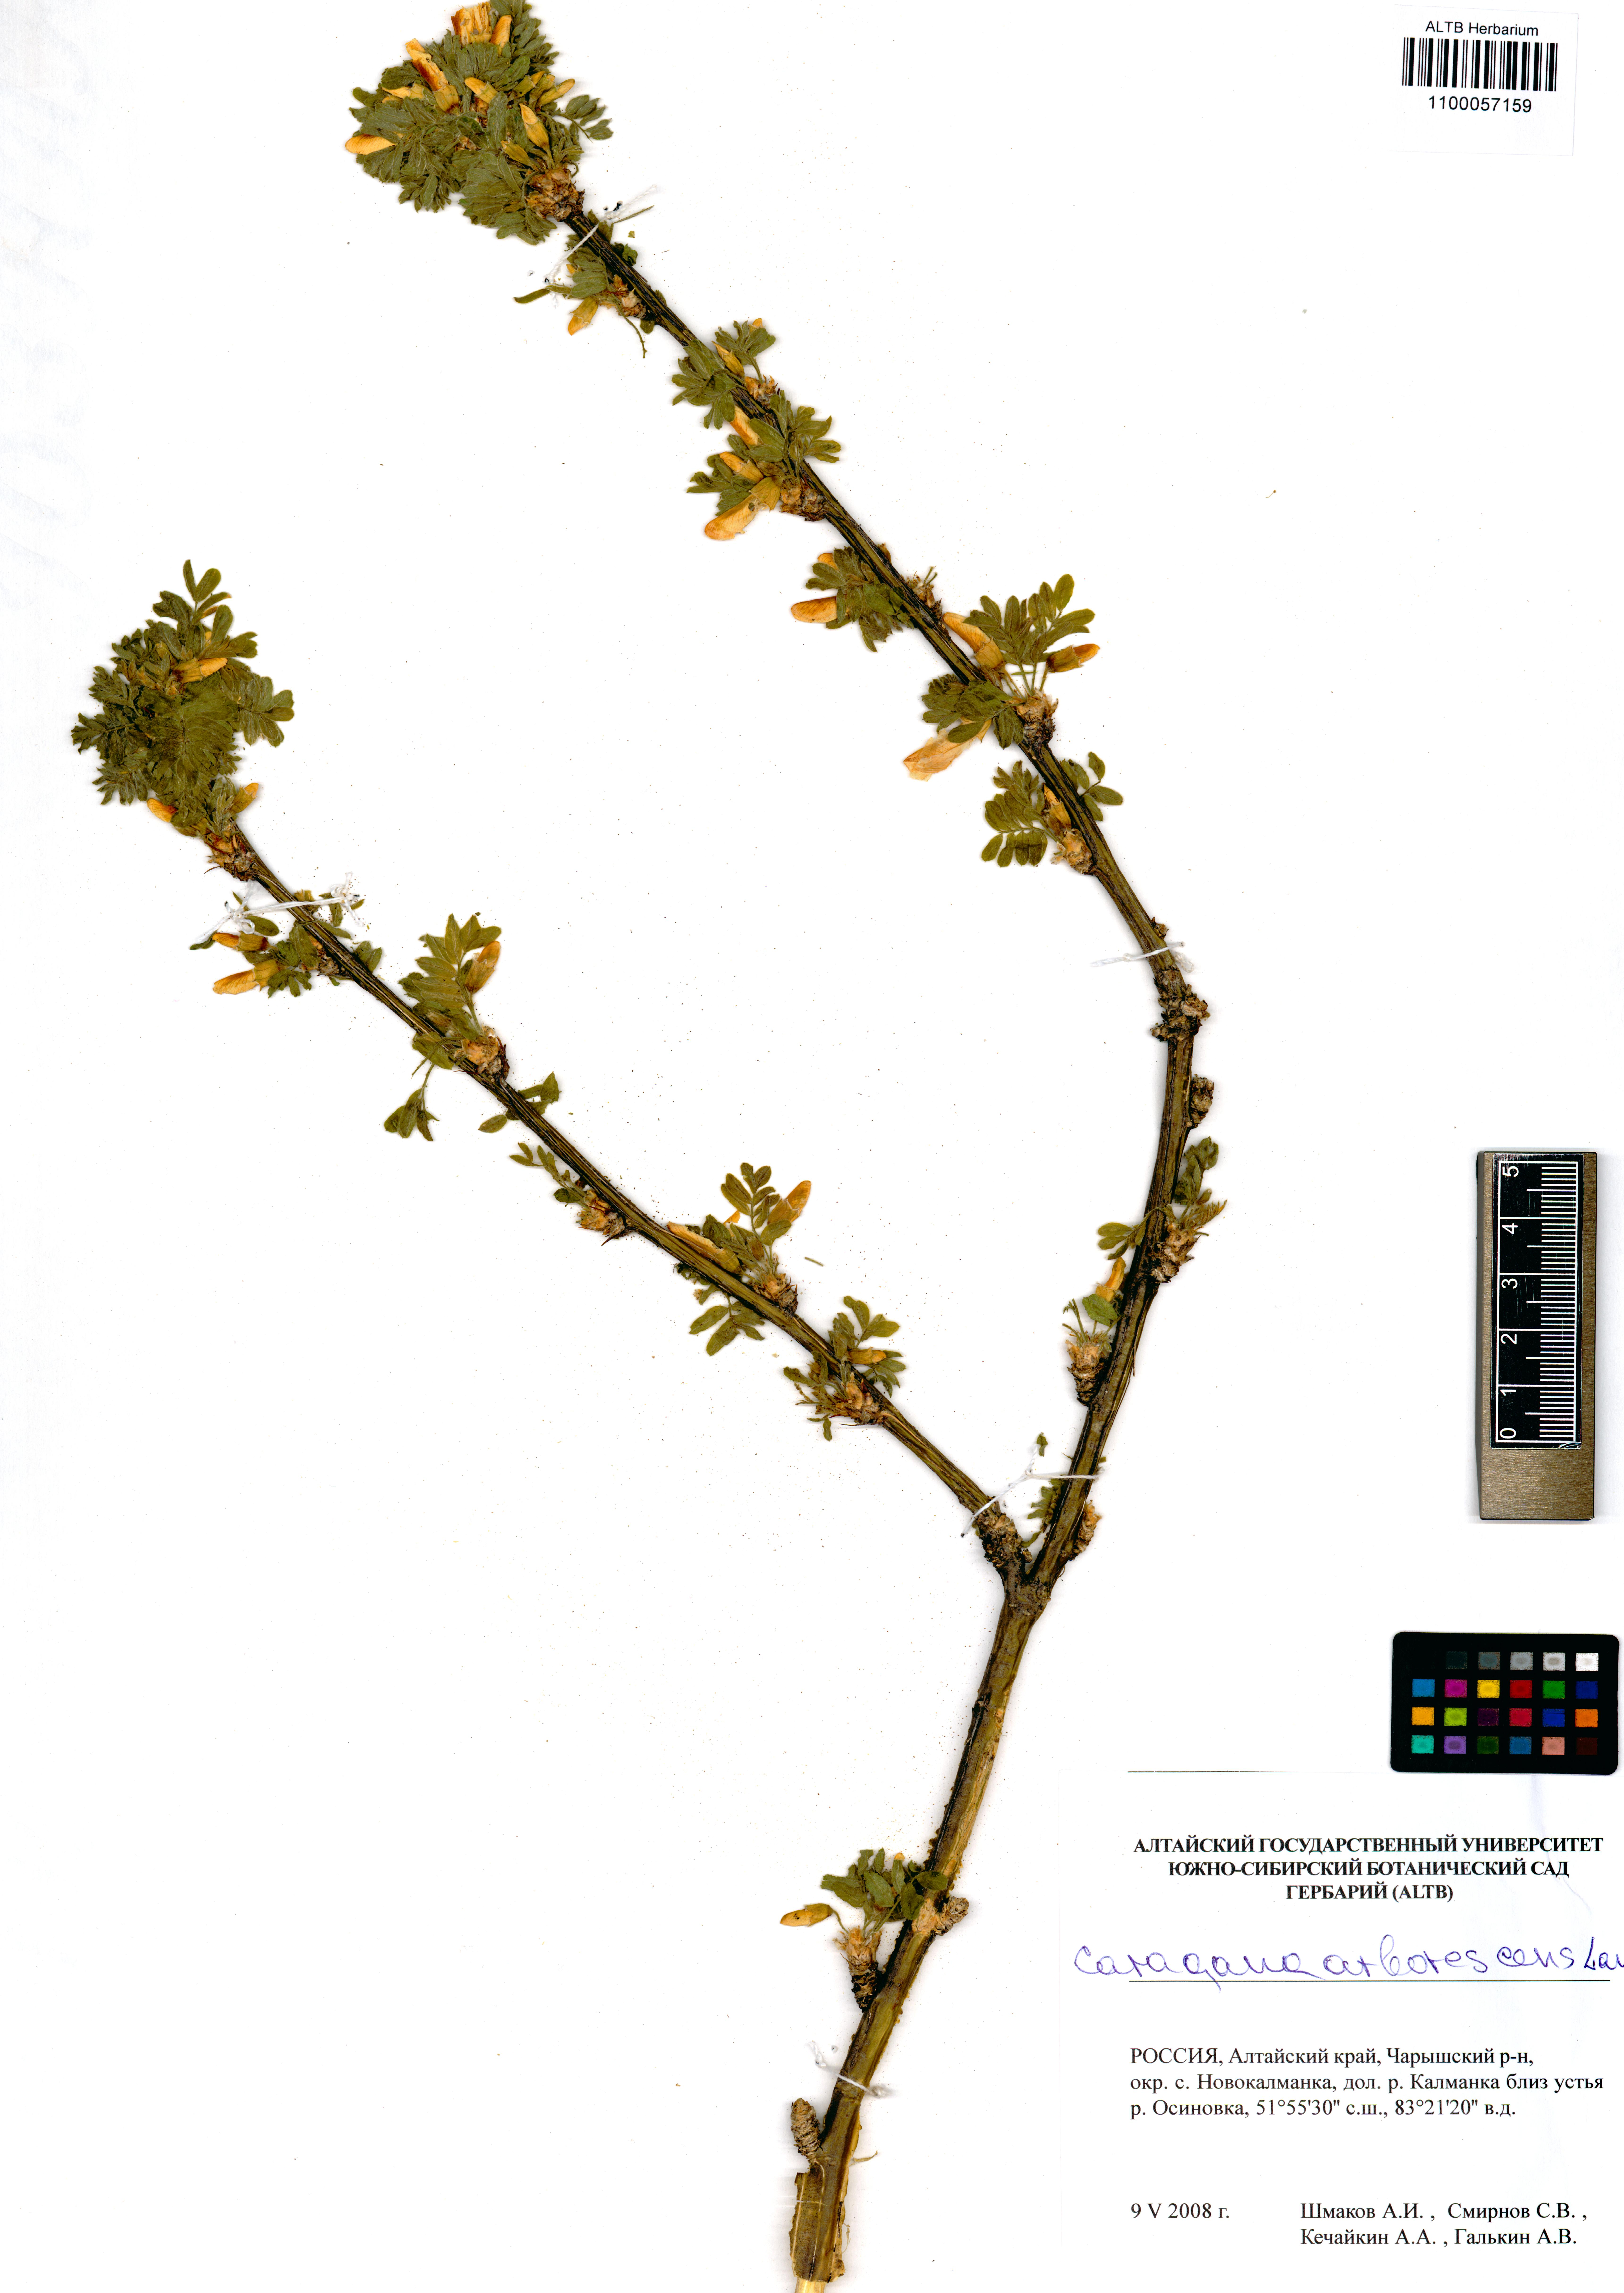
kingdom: Plantae
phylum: Tracheophyta
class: Magnoliopsida
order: Fabales
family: Fabaceae
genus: Caragana
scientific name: Caragana arborescens
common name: Siberian peashrub
